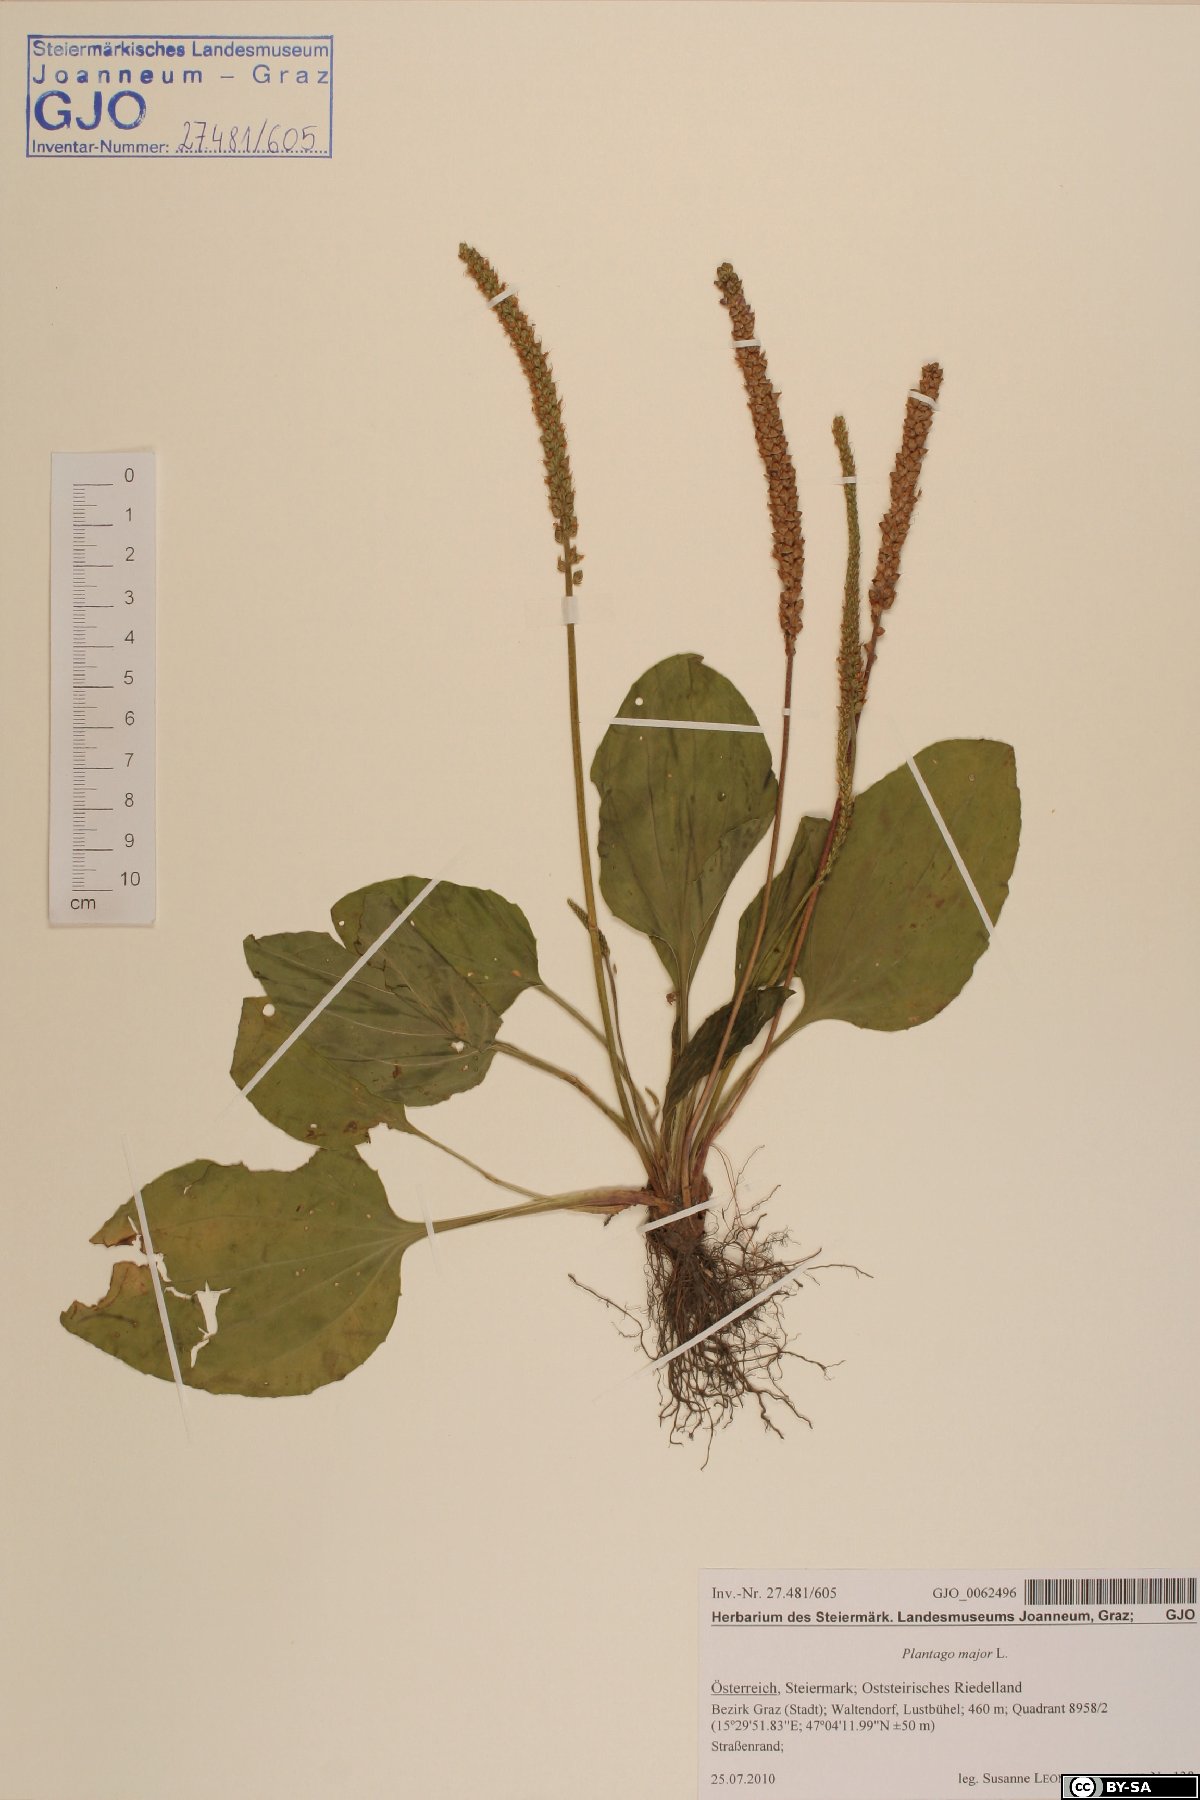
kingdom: Plantae
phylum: Tracheophyta
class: Magnoliopsida
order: Lamiales
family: Plantaginaceae
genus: Plantago
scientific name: Plantago major
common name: Common plantain
